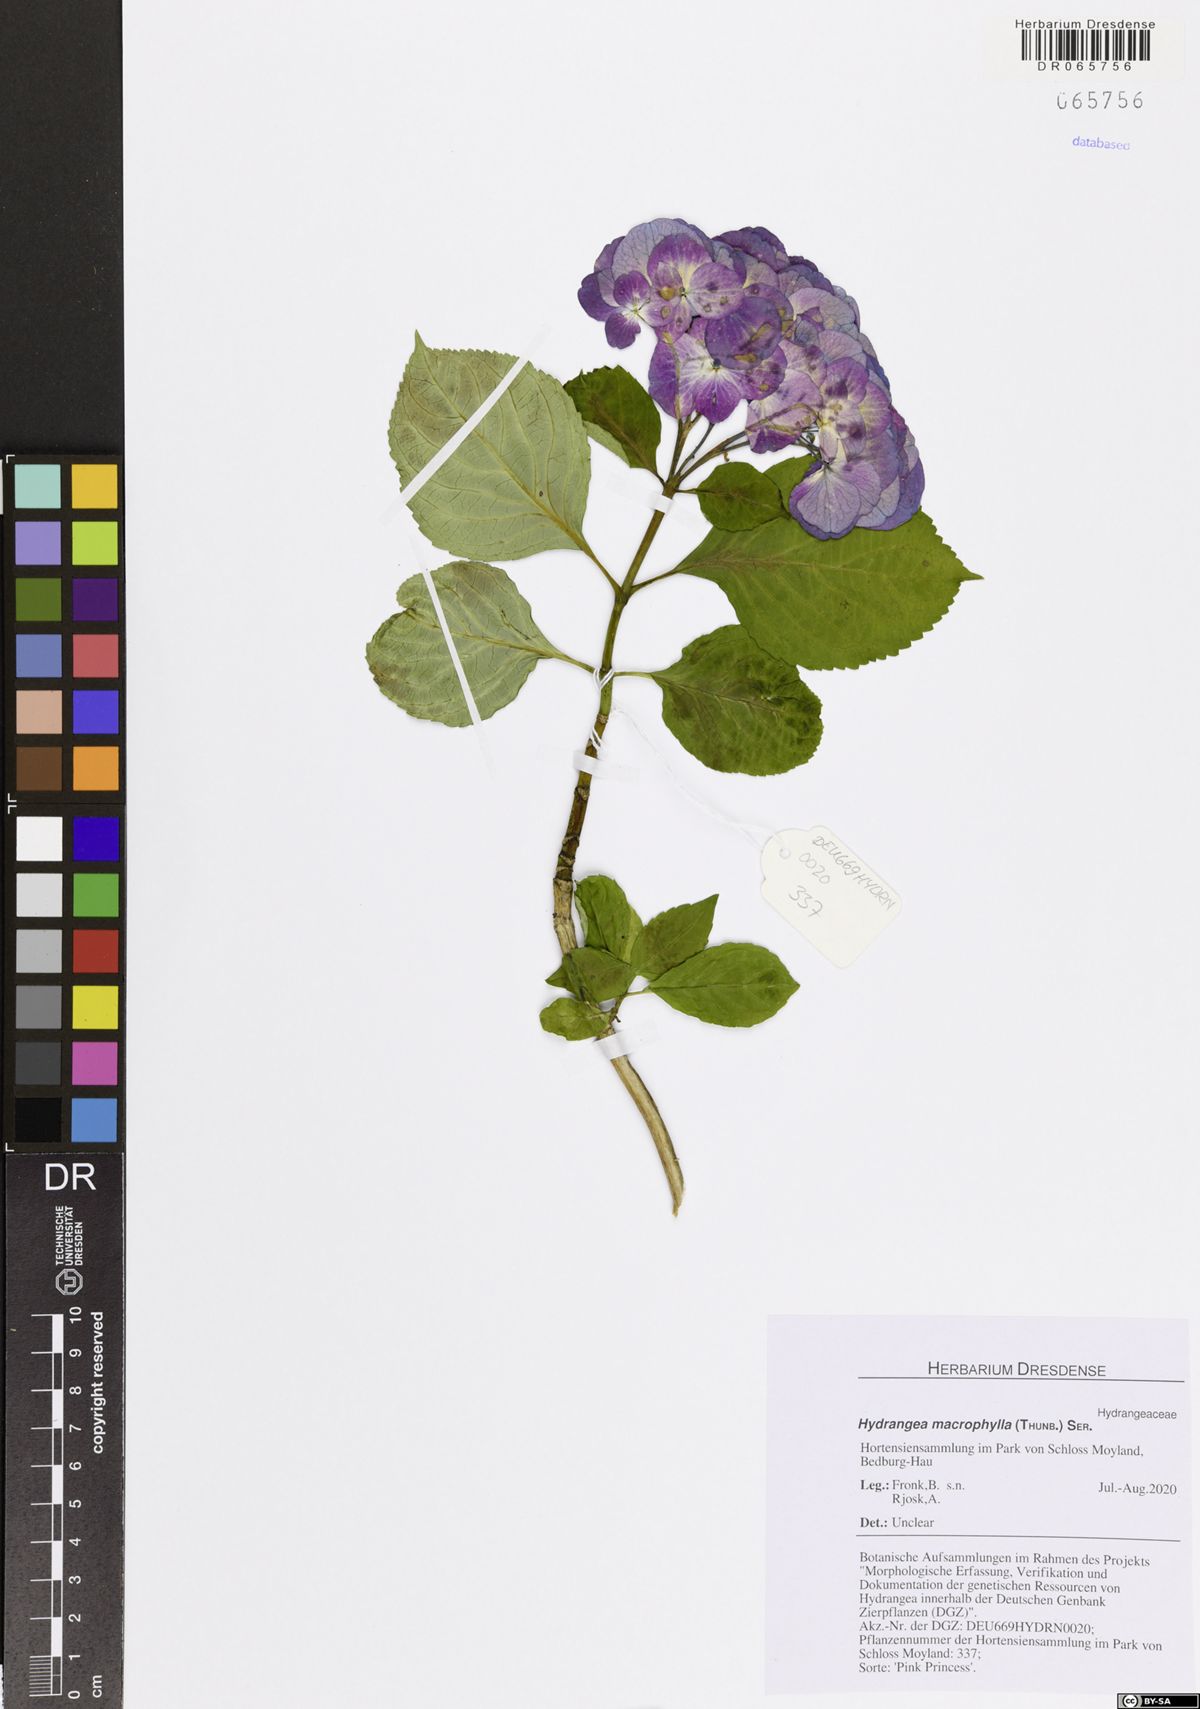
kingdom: Plantae
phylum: Tracheophyta
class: Magnoliopsida
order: Cornales
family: Hydrangeaceae
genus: Hydrangea
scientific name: Hydrangea macrophylla
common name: Hydrangea
